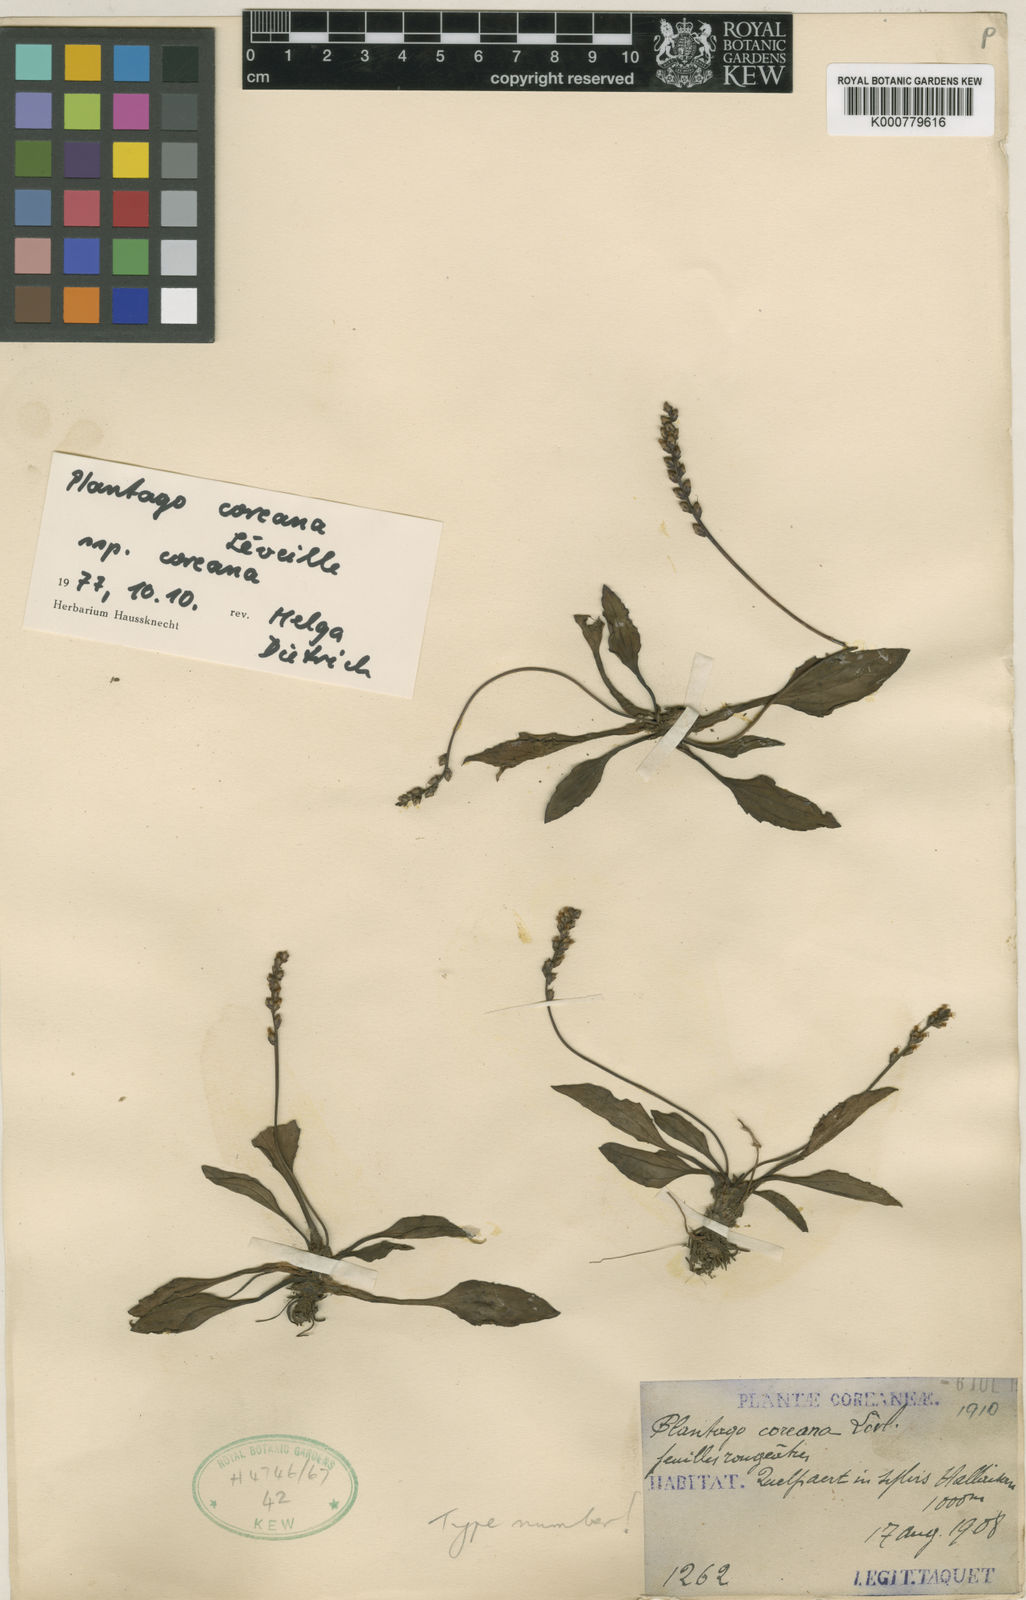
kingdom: Plantae
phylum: Tracheophyta
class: Magnoliopsida
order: Lamiales
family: Plantaginaceae
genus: Plantago
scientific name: Plantago
